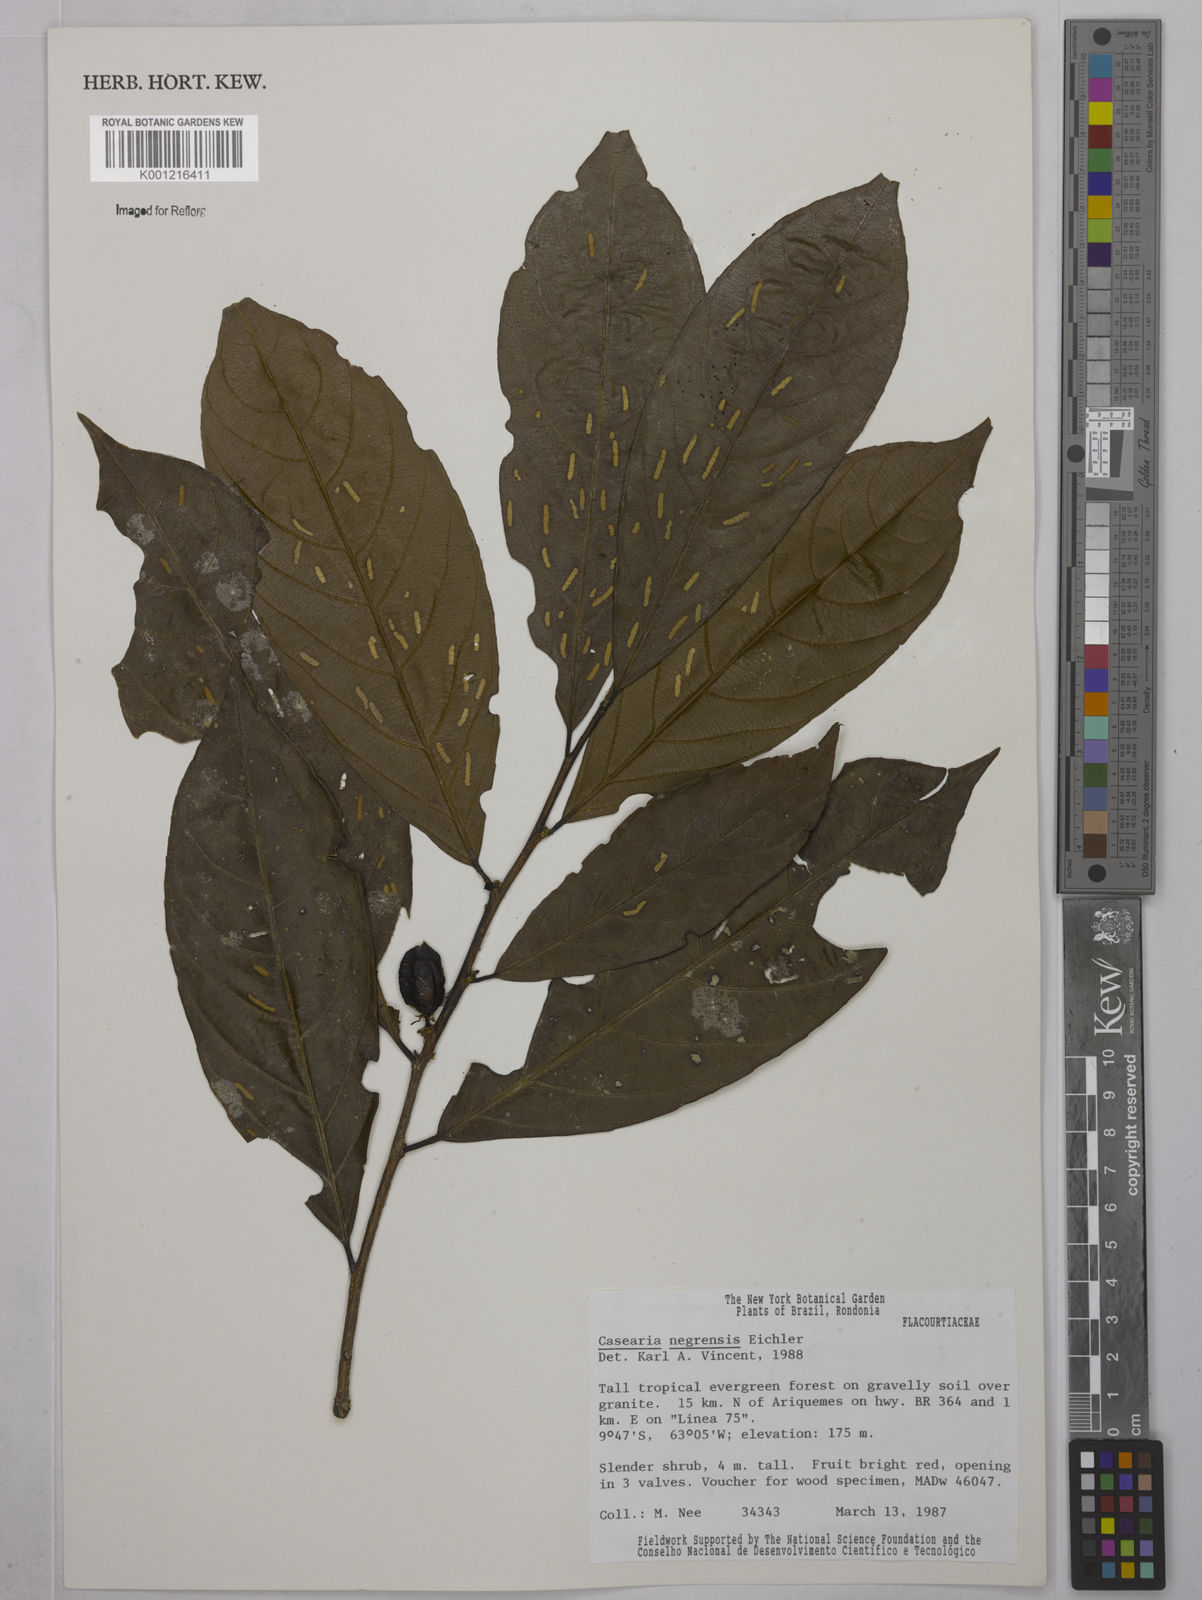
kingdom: Plantae
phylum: Tracheophyta
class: Magnoliopsida
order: Malpighiales
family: Salicaceae
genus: Casearia
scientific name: Casearia negrensis
